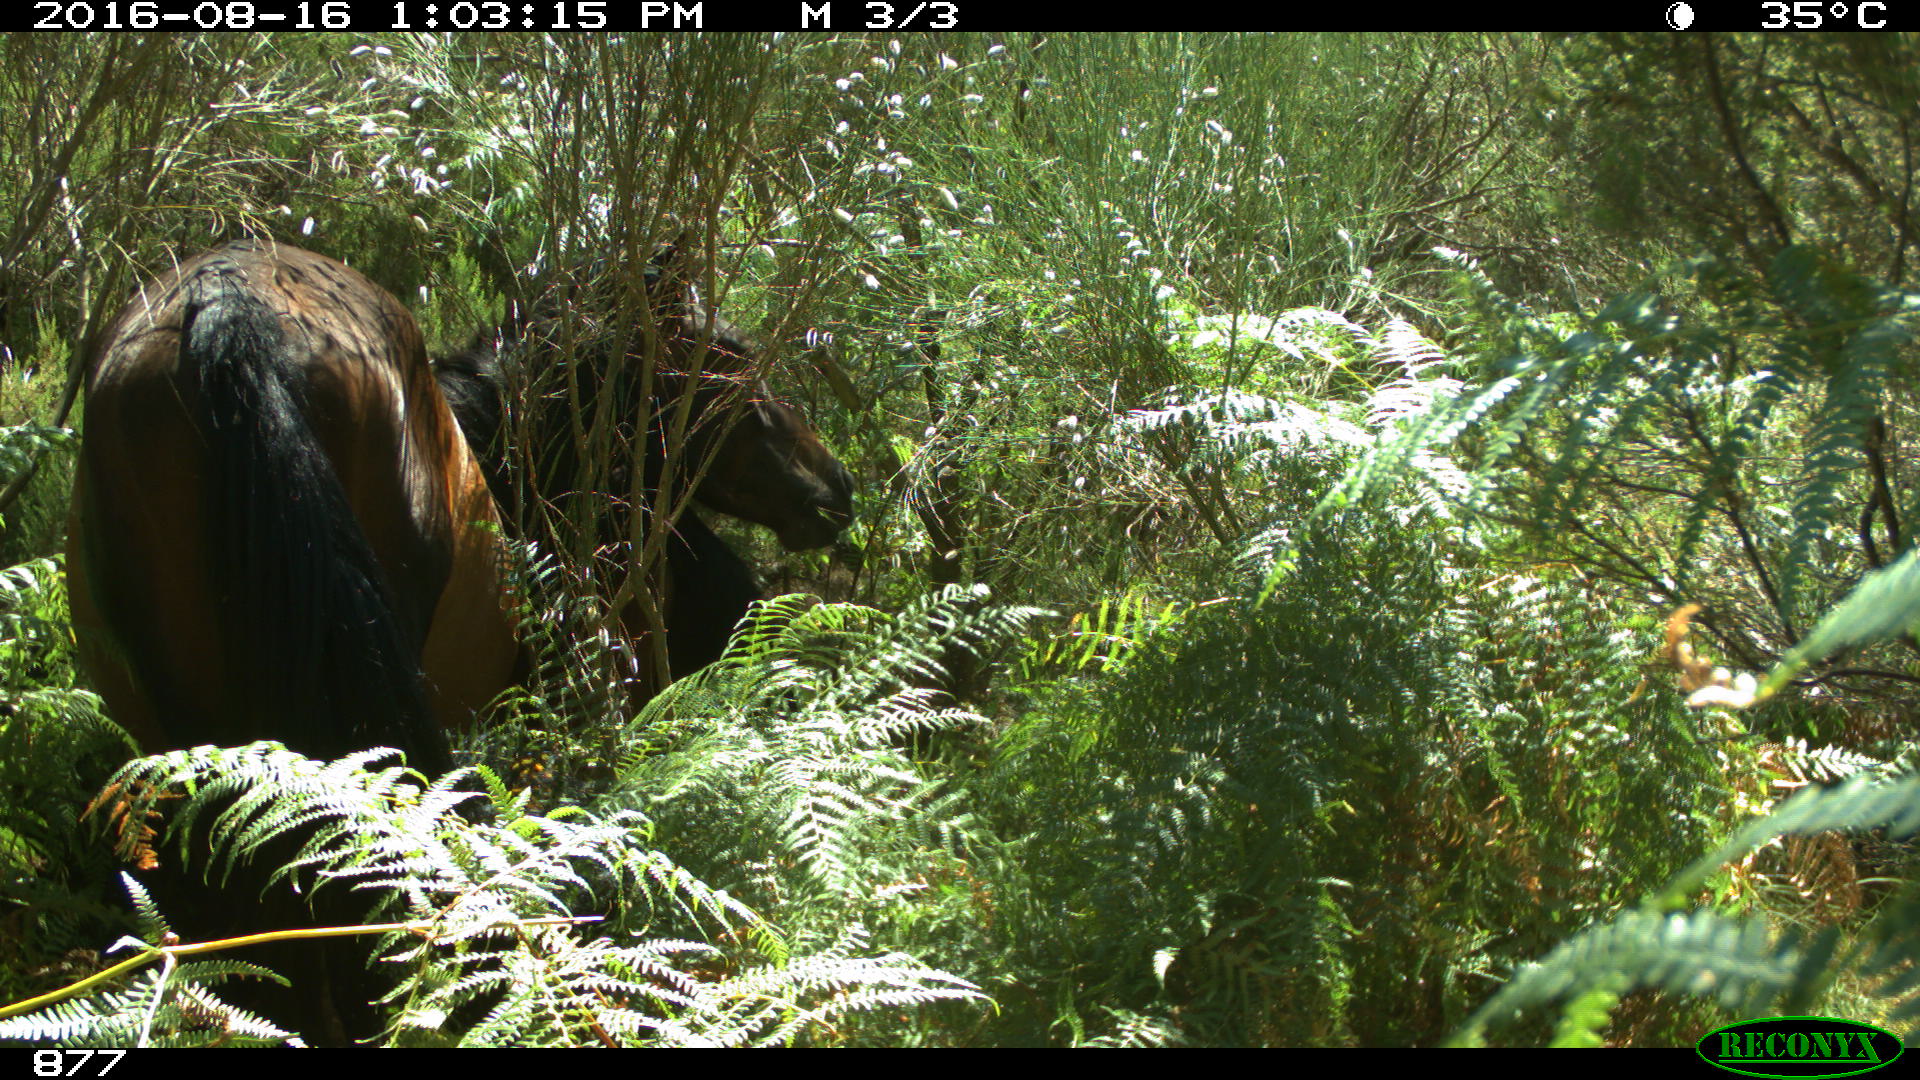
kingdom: Animalia
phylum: Chordata
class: Mammalia
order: Perissodactyla
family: Equidae
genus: Equus
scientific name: Equus caballus
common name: Horse
